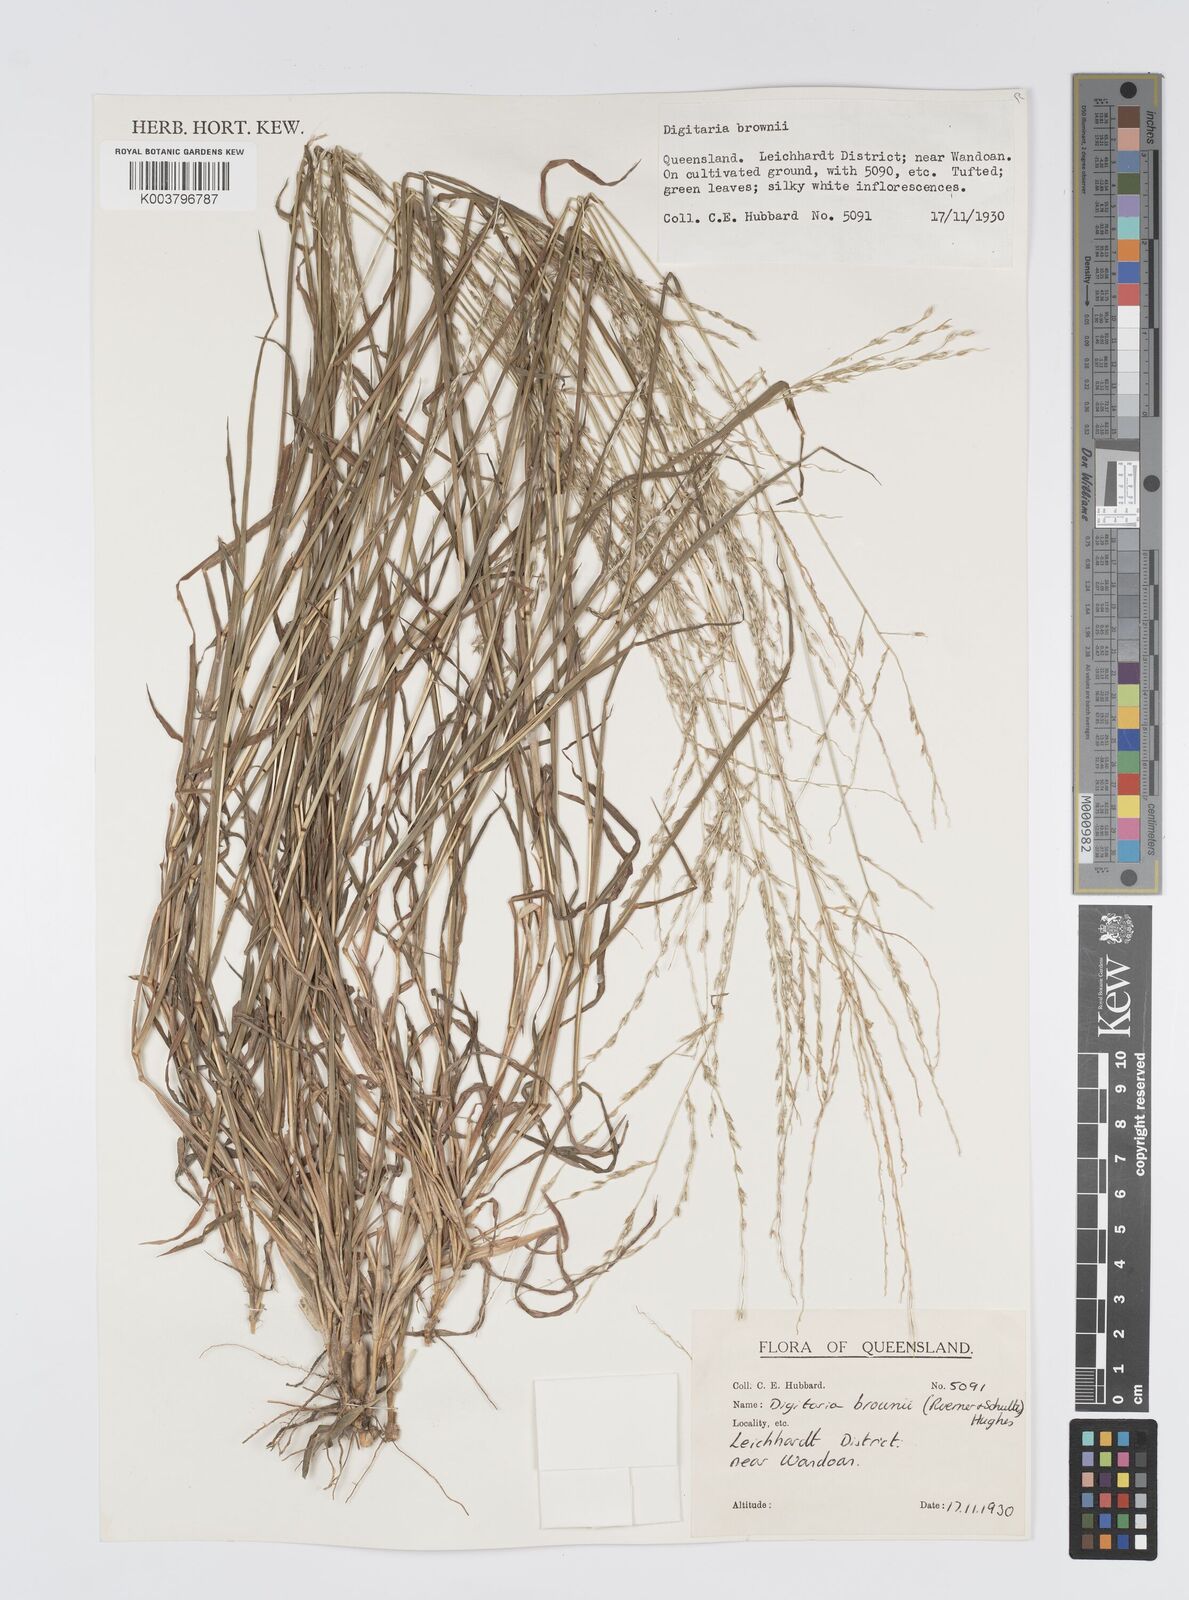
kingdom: Plantae
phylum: Tracheophyta
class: Liliopsida
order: Poales
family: Poaceae
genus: Digitaria
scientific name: Digitaria brownii
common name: Cotton grass
